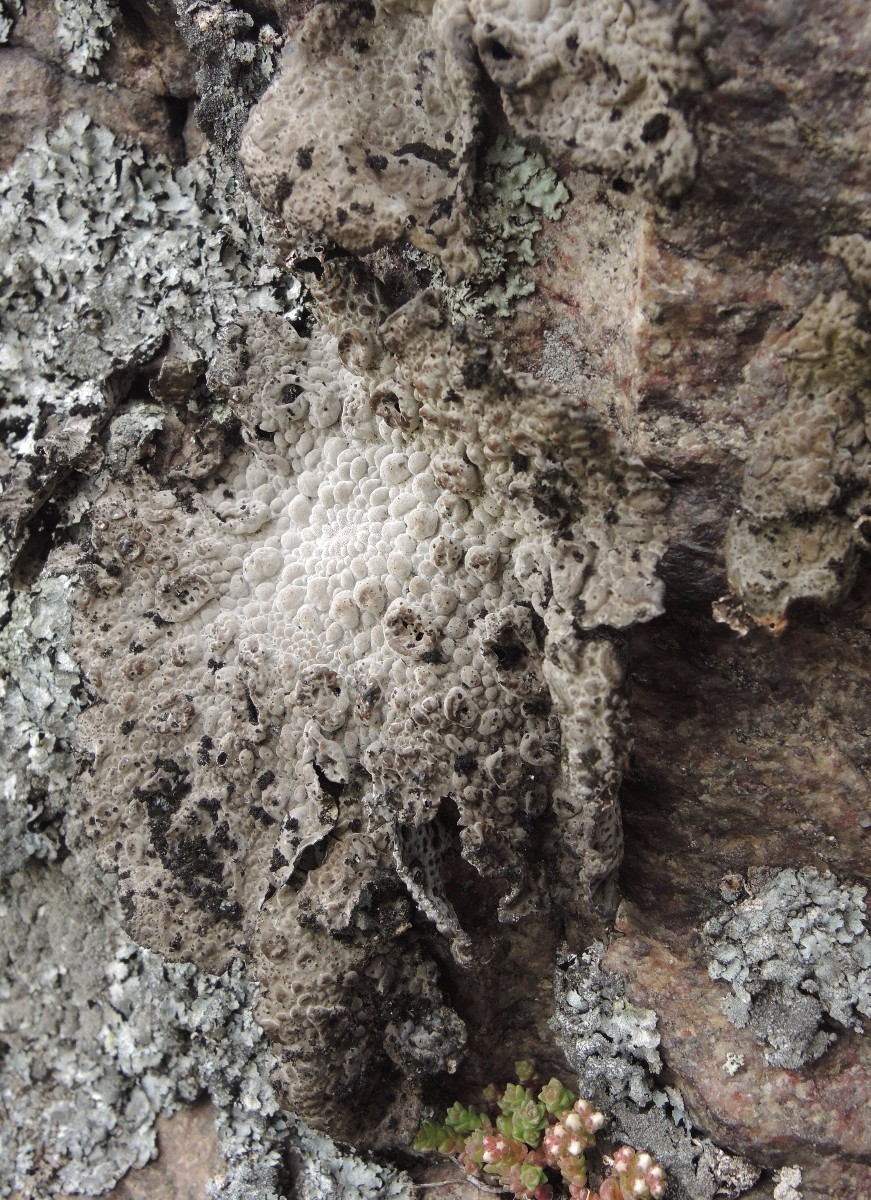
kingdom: Fungi
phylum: Ascomycota
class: Lecanoromycetes
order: Umbilicariales
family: Umbilicariaceae
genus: Lasallia
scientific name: Lasallia pustulata
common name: buklet navlelav
